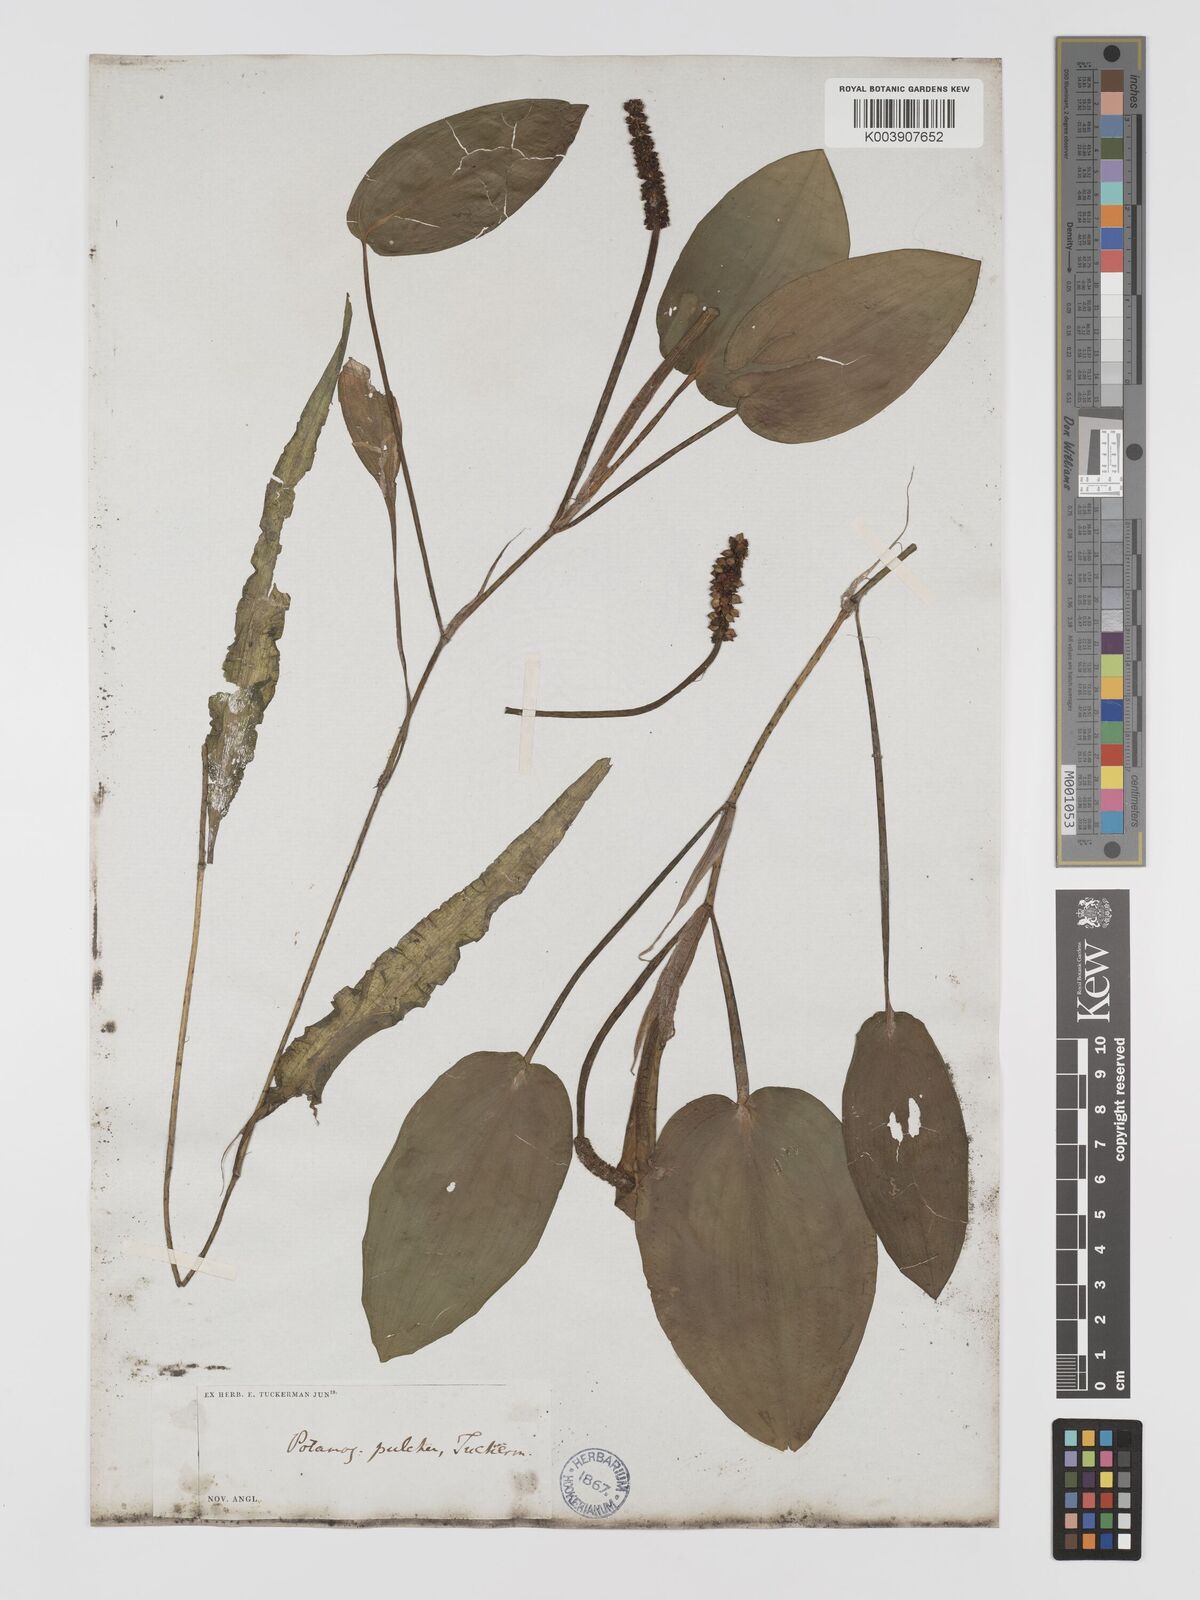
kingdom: Plantae
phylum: Tracheophyta
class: Liliopsida
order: Alismatales
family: Potamogetonaceae
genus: Potamogeton
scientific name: Potamogeton pulcher
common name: Heart-leaved pondweed
